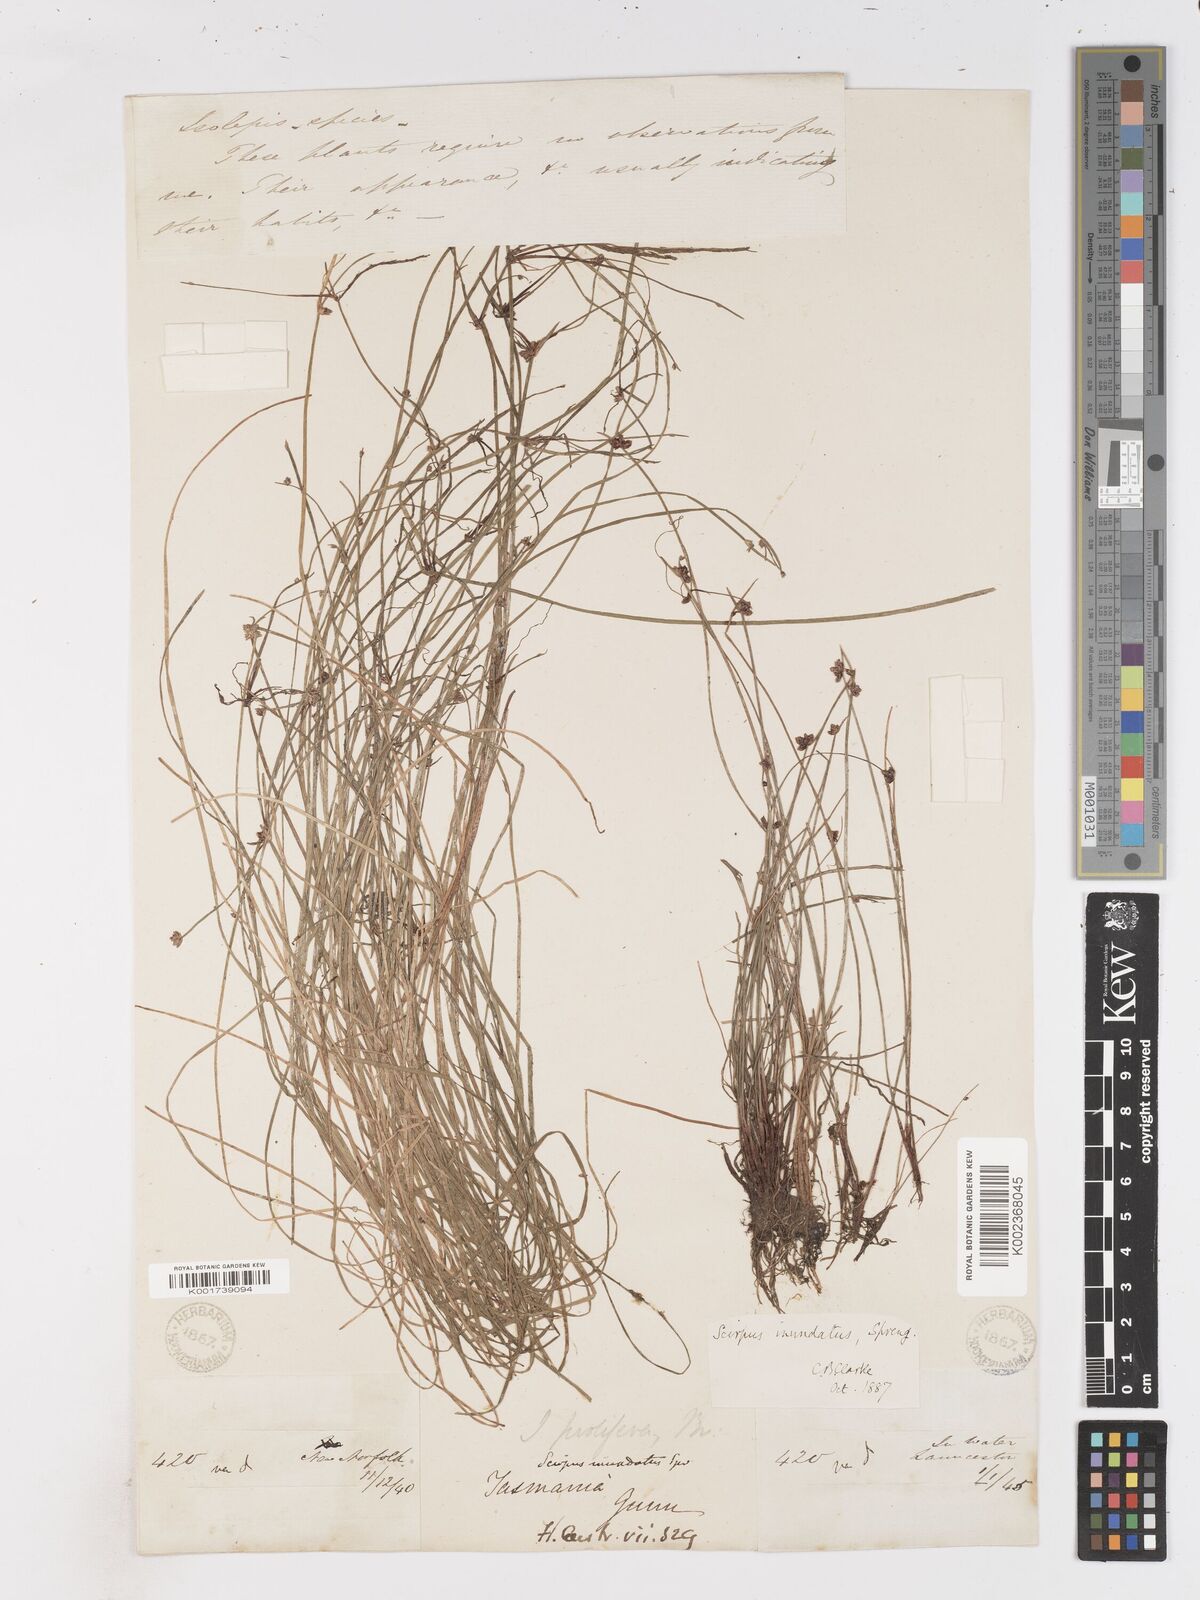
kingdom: Plantae
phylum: Tracheophyta
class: Liliopsida
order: Poales
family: Cyperaceae
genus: Isolepis
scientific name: Isolepis inundata
